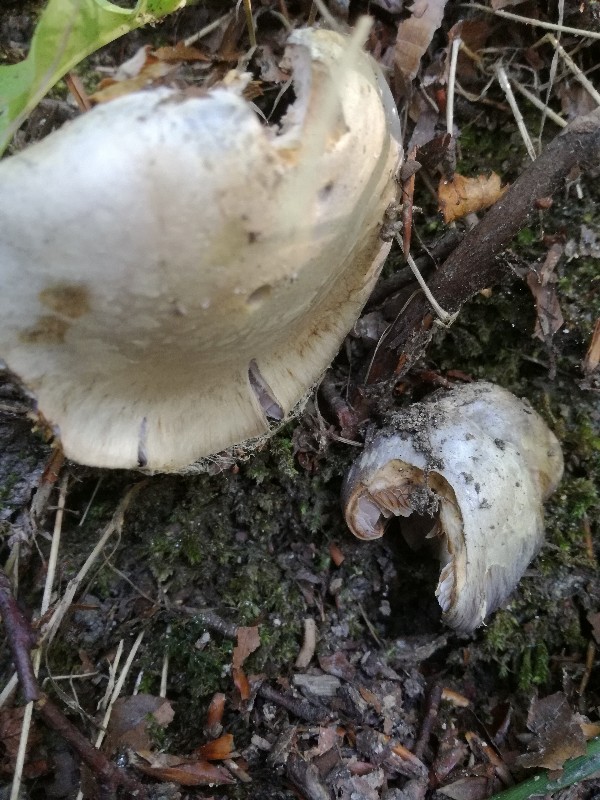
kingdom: Fungi
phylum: Basidiomycota
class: Agaricomycetes
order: Agaricales
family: Cortinariaceae
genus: Cortinarius
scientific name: Cortinarius caerulescens
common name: blåkødet slørhat
